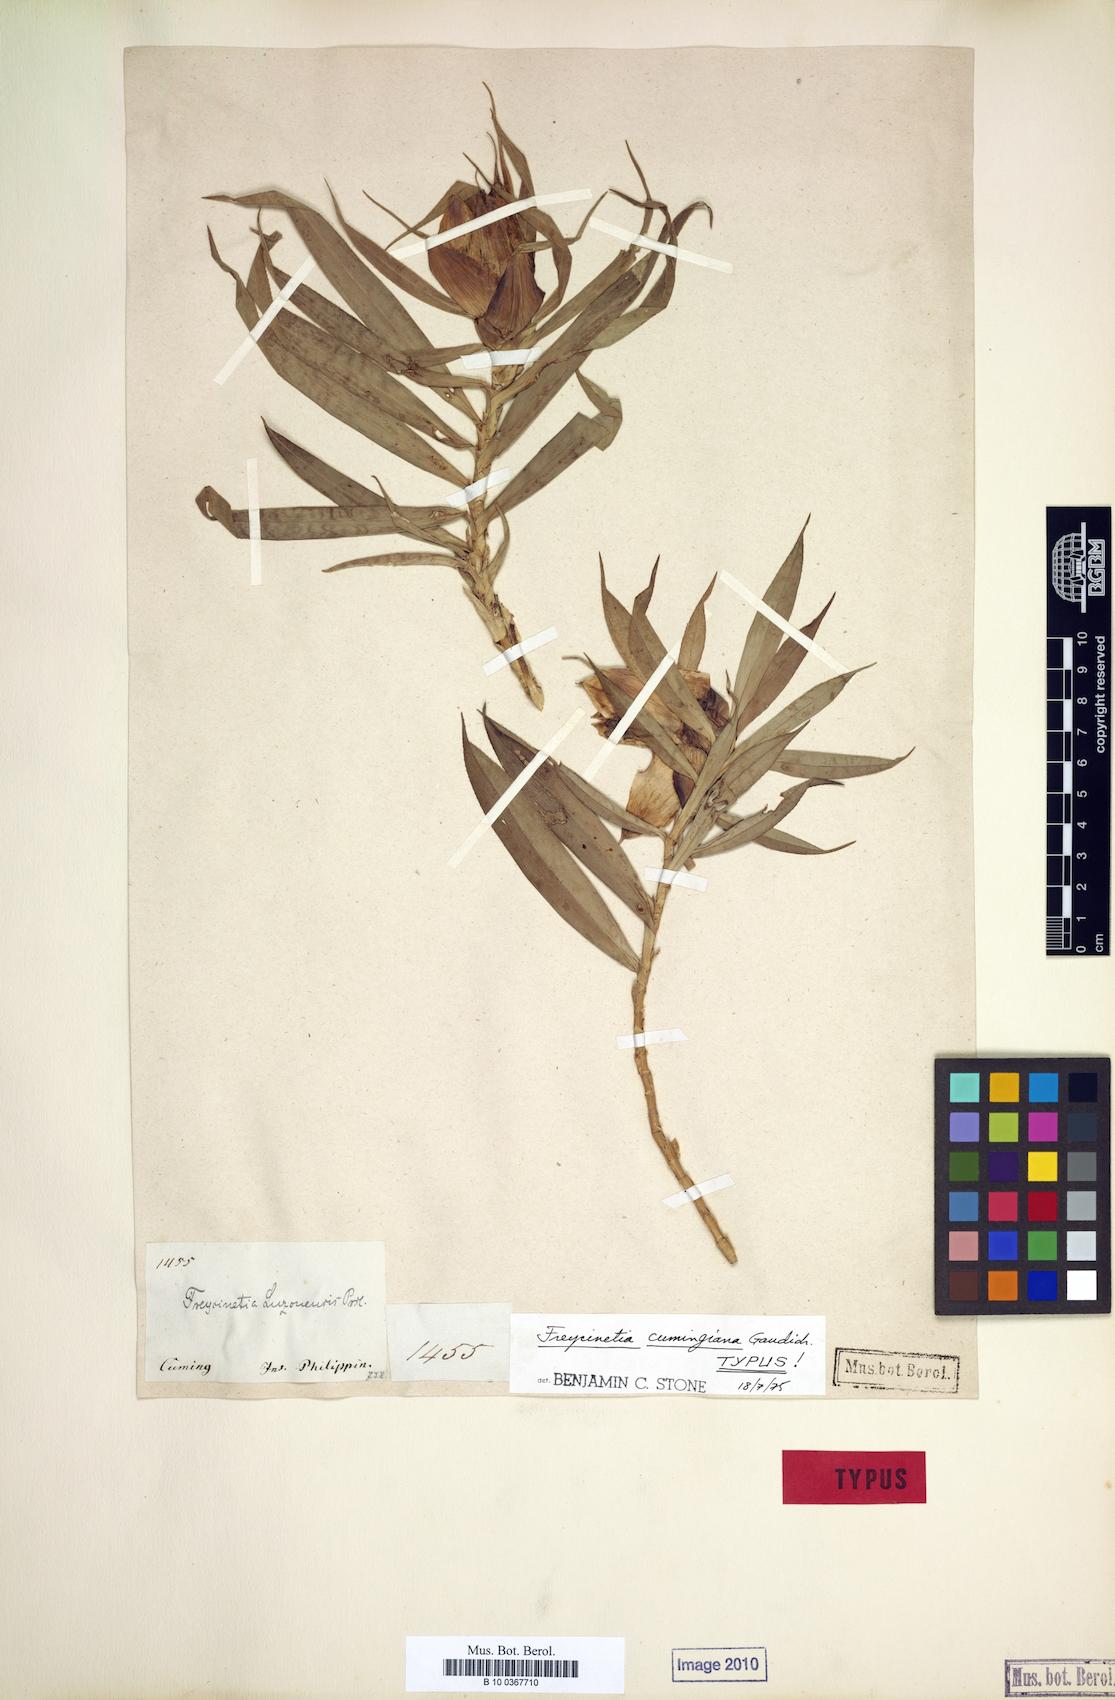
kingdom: Plantae
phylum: Tracheophyta
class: Liliopsida
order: Pandanales
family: Pandanaceae
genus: Freycinetia
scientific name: Freycinetia cumingiana
